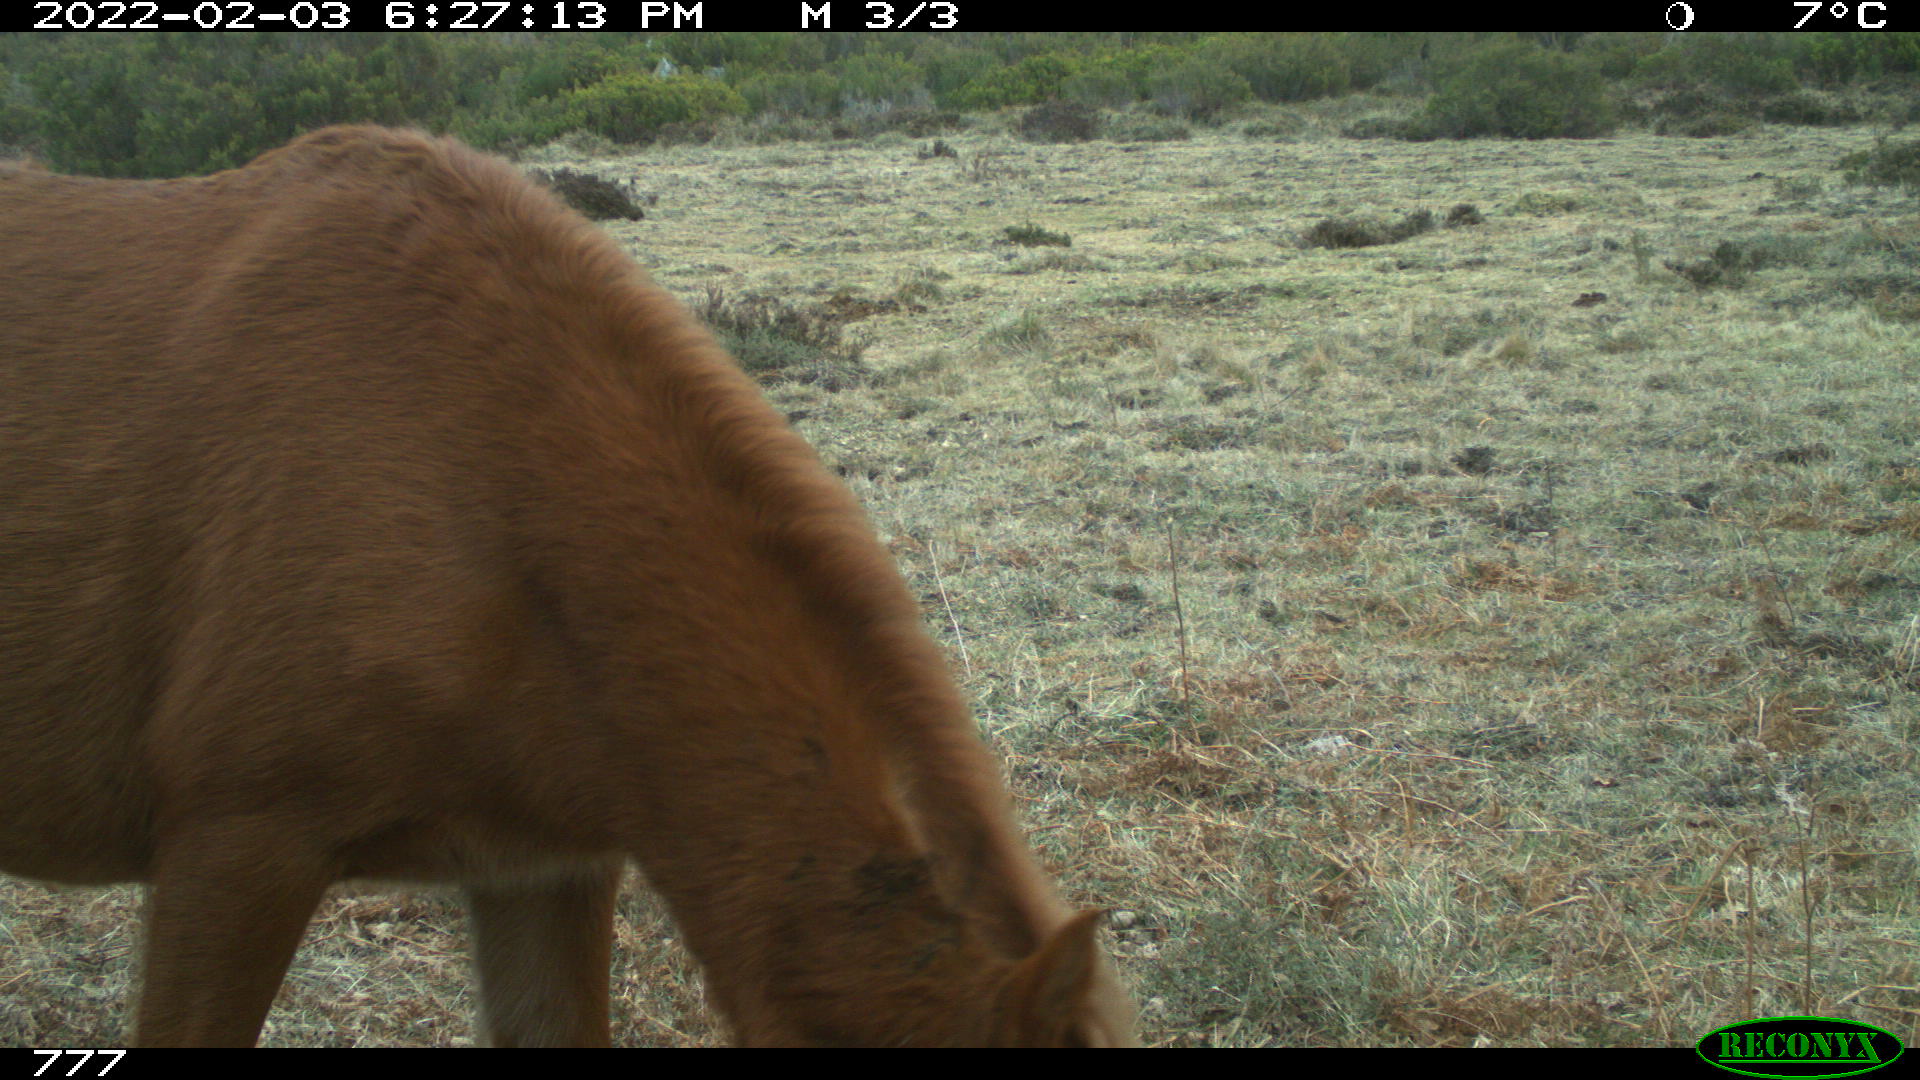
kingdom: Animalia
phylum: Chordata
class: Mammalia
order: Perissodactyla
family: Equidae
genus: Equus
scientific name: Equus caballus
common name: Horse
